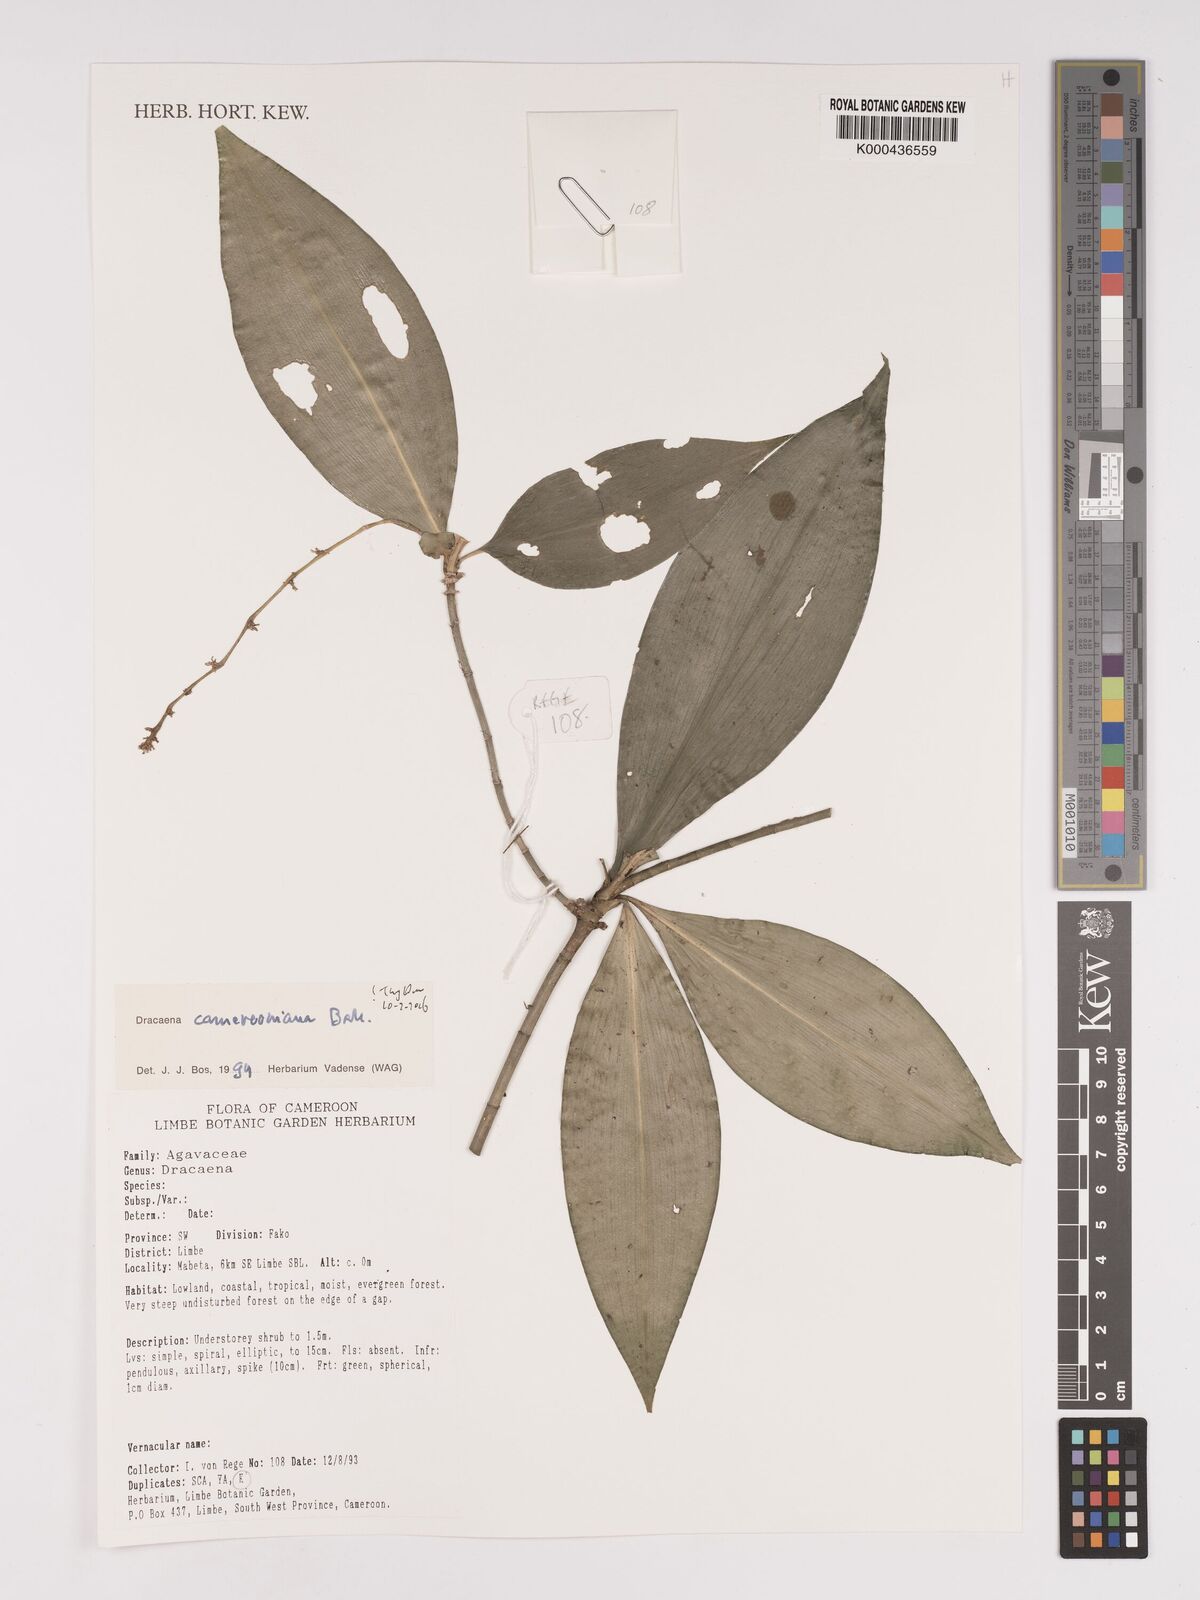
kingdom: Plantae
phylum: Tracheophyta
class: Liliopsida
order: Asparagales
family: Asparagaceae
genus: Dracaena
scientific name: Dracaena camerooniana
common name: Dragon tree
